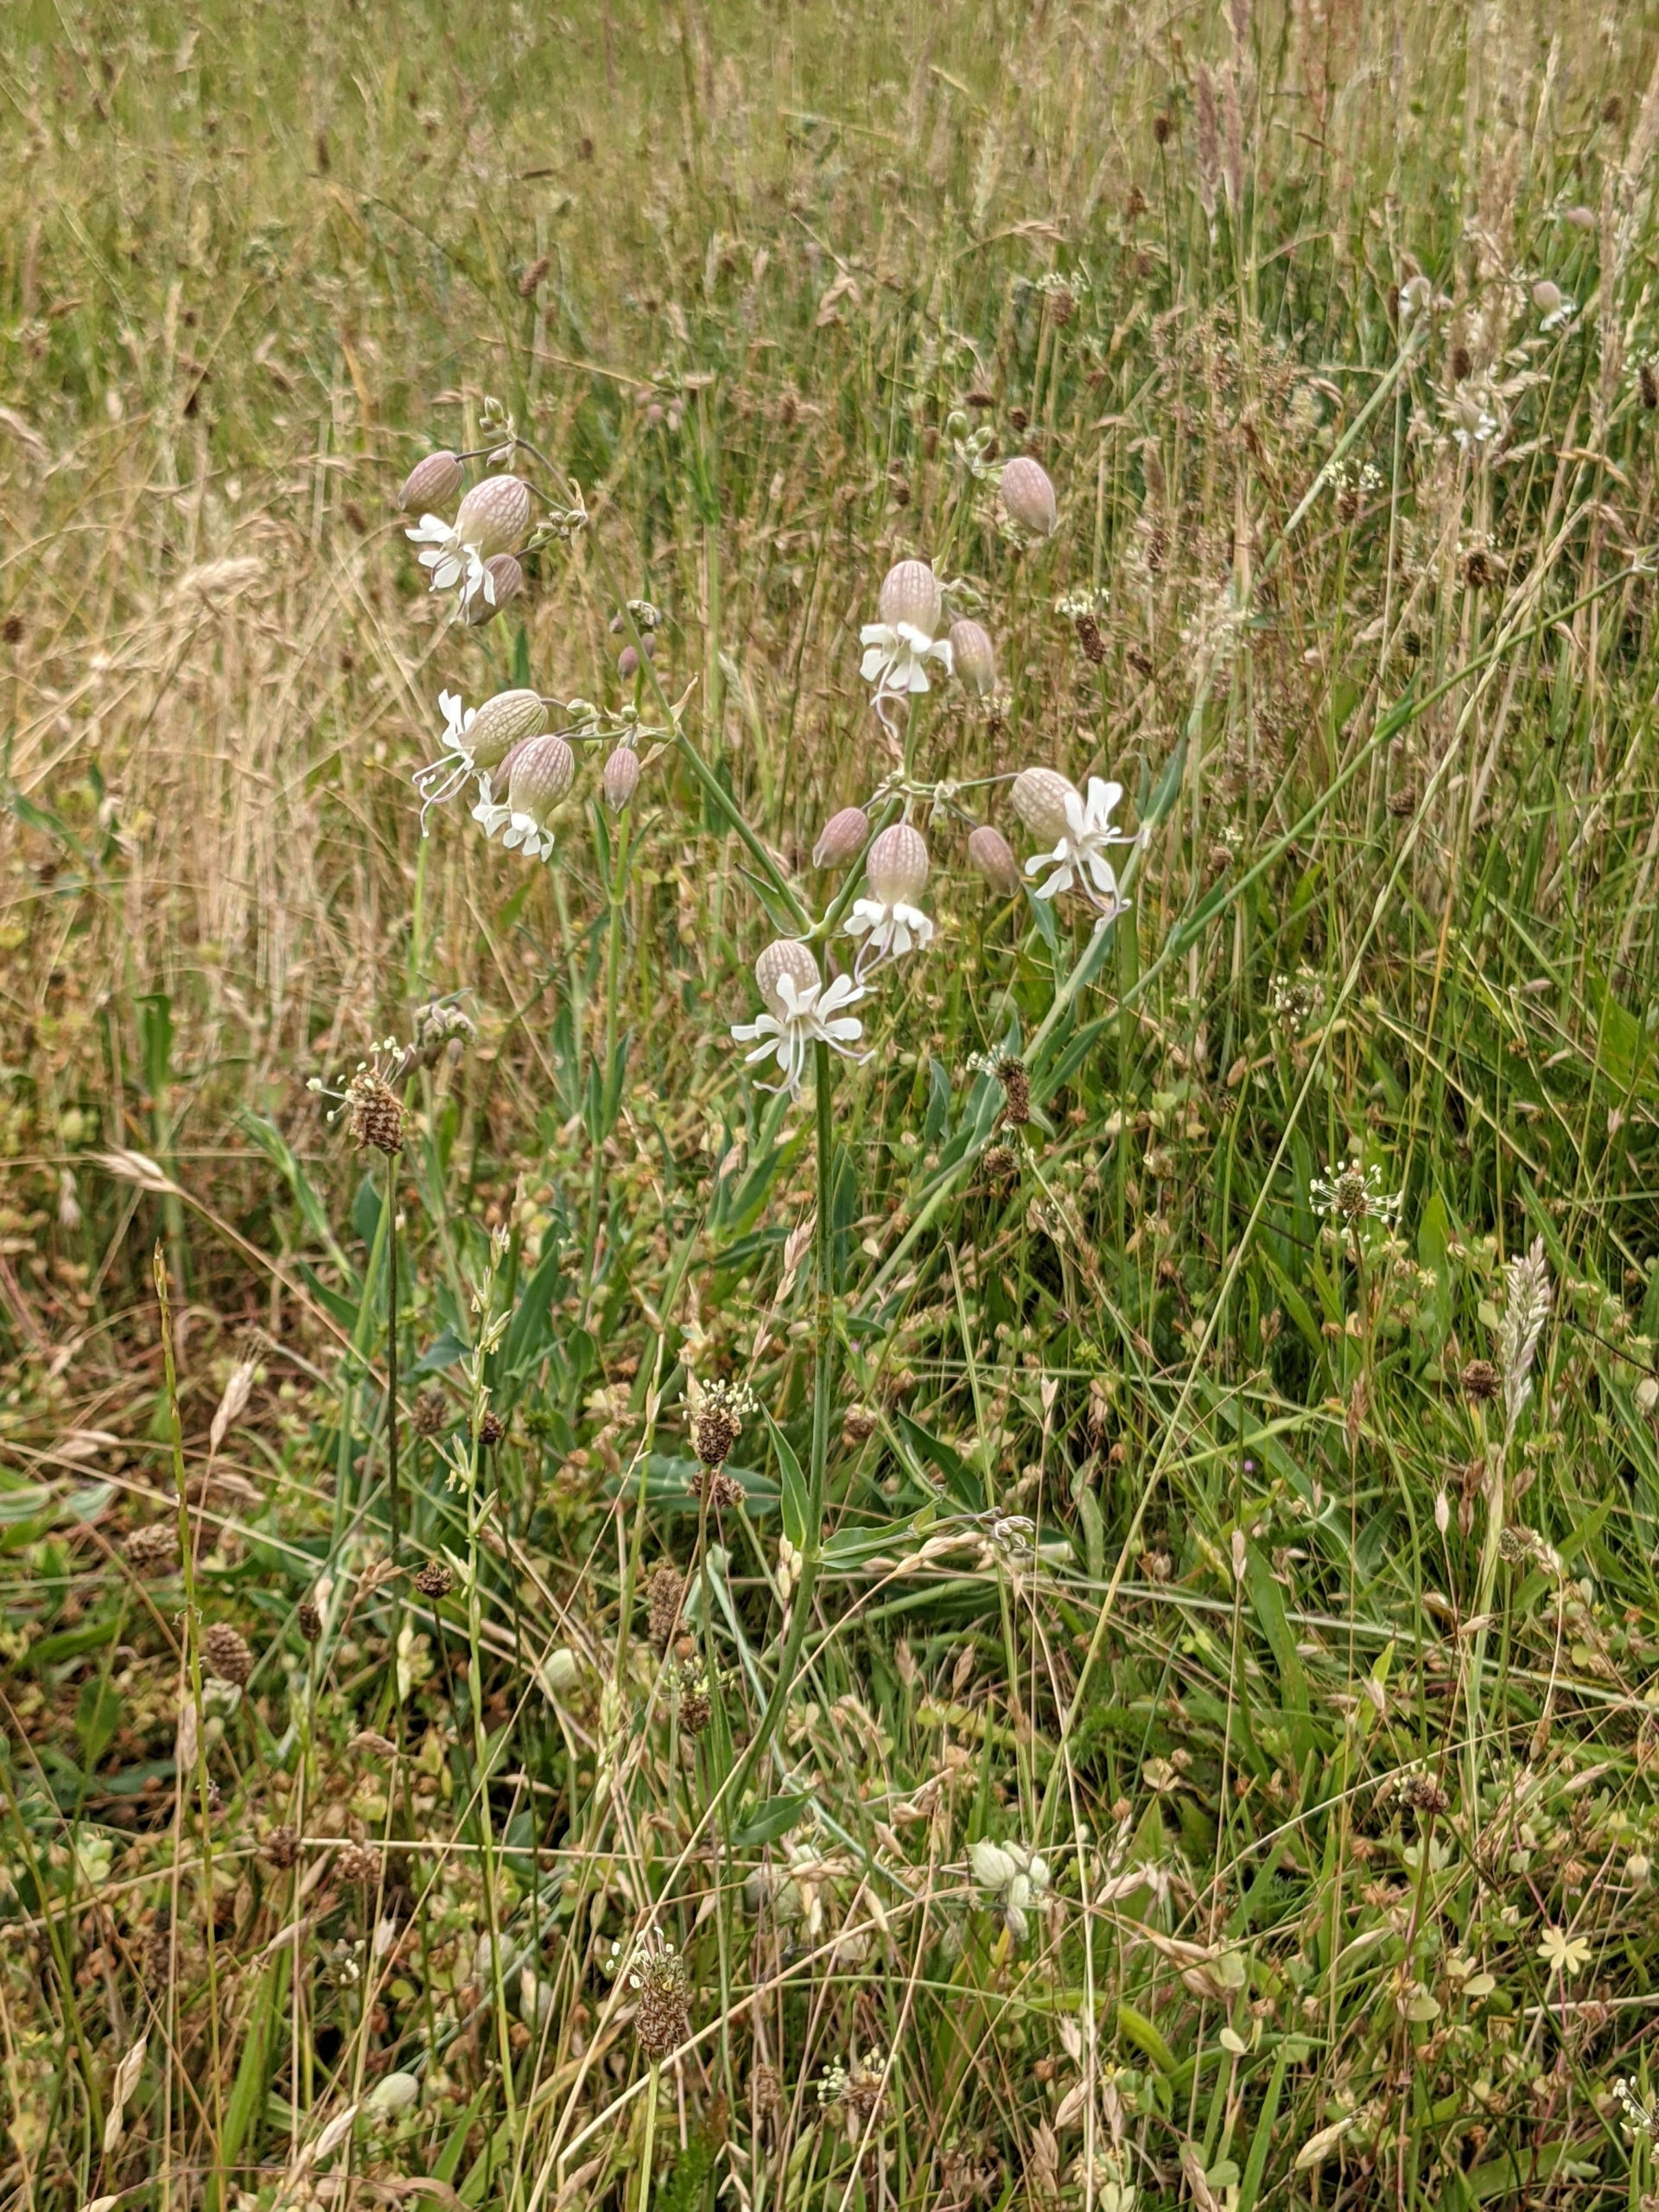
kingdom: Plantae
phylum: Tracheophyta
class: Magnoliopsida
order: Caryophyllales
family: Caryophyllaceae
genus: Silene
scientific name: Silene vulgaris
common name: Blæresmælde
